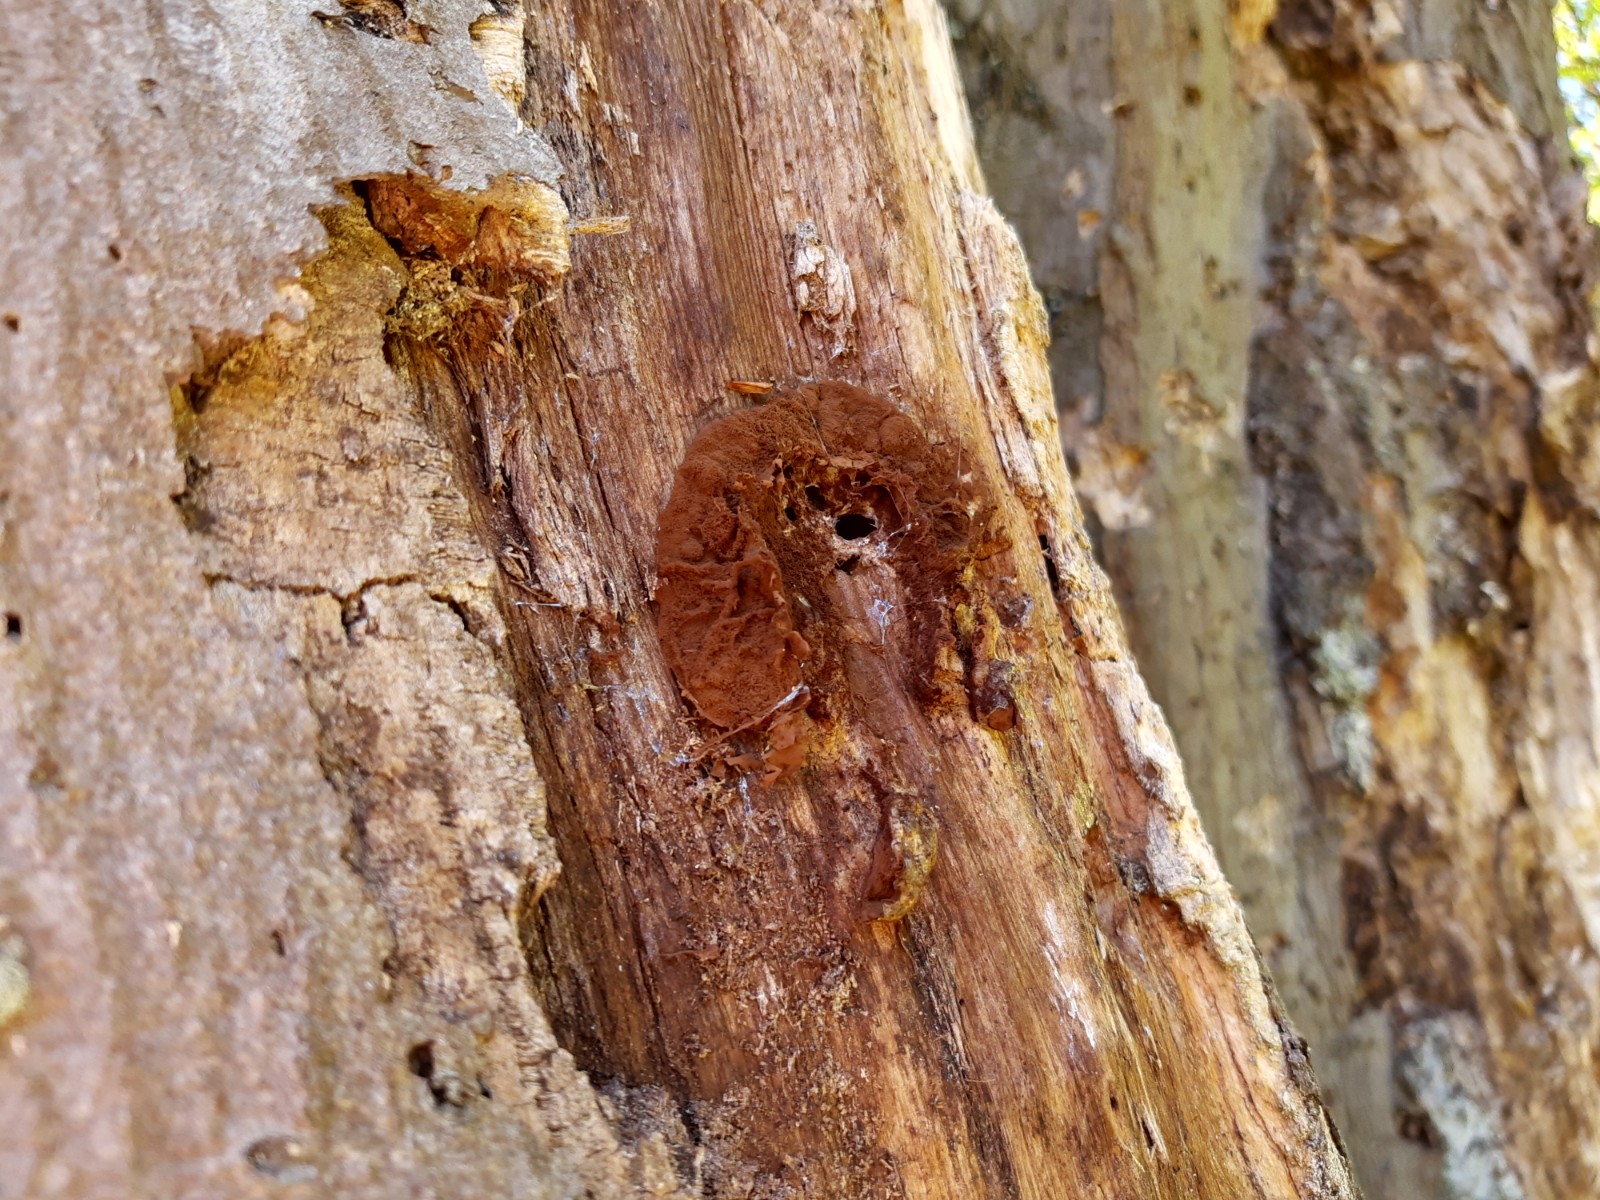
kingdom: Protozoa
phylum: Mycetozoa
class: Myxomycetes
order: Cribrariales
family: Tubiferaceae
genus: Reticularia
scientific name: Reticularia lycoperdon
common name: skinnende støvpude
